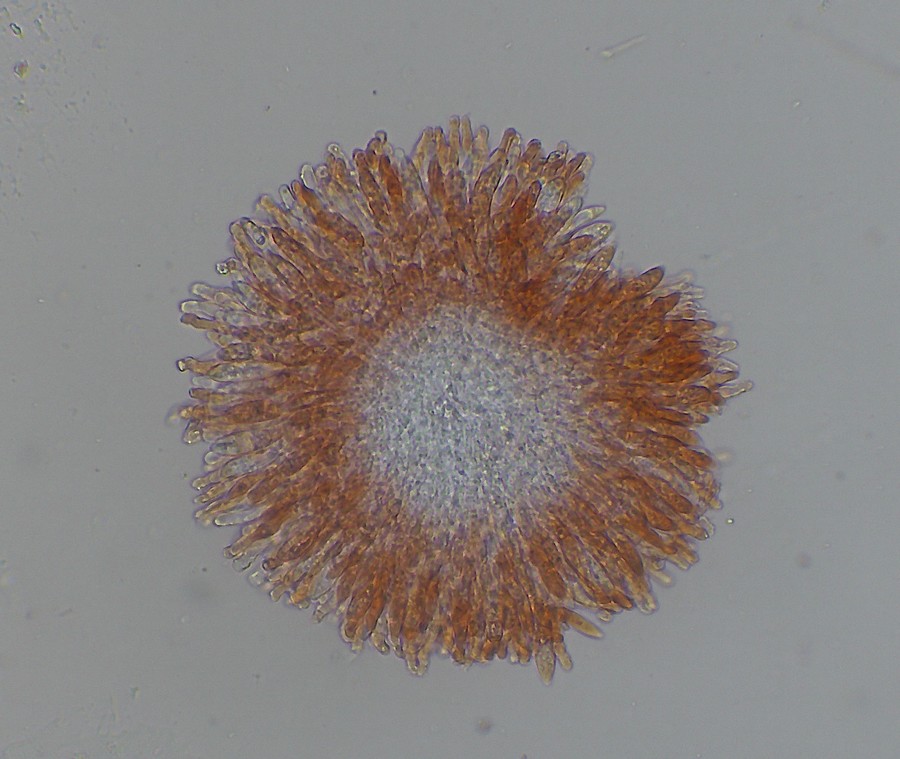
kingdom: Fungi
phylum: Ascomycota
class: Leotiomycetes
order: Helotiales
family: Hyaloscyphaceae
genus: Cistella
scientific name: Cistella fugiens
